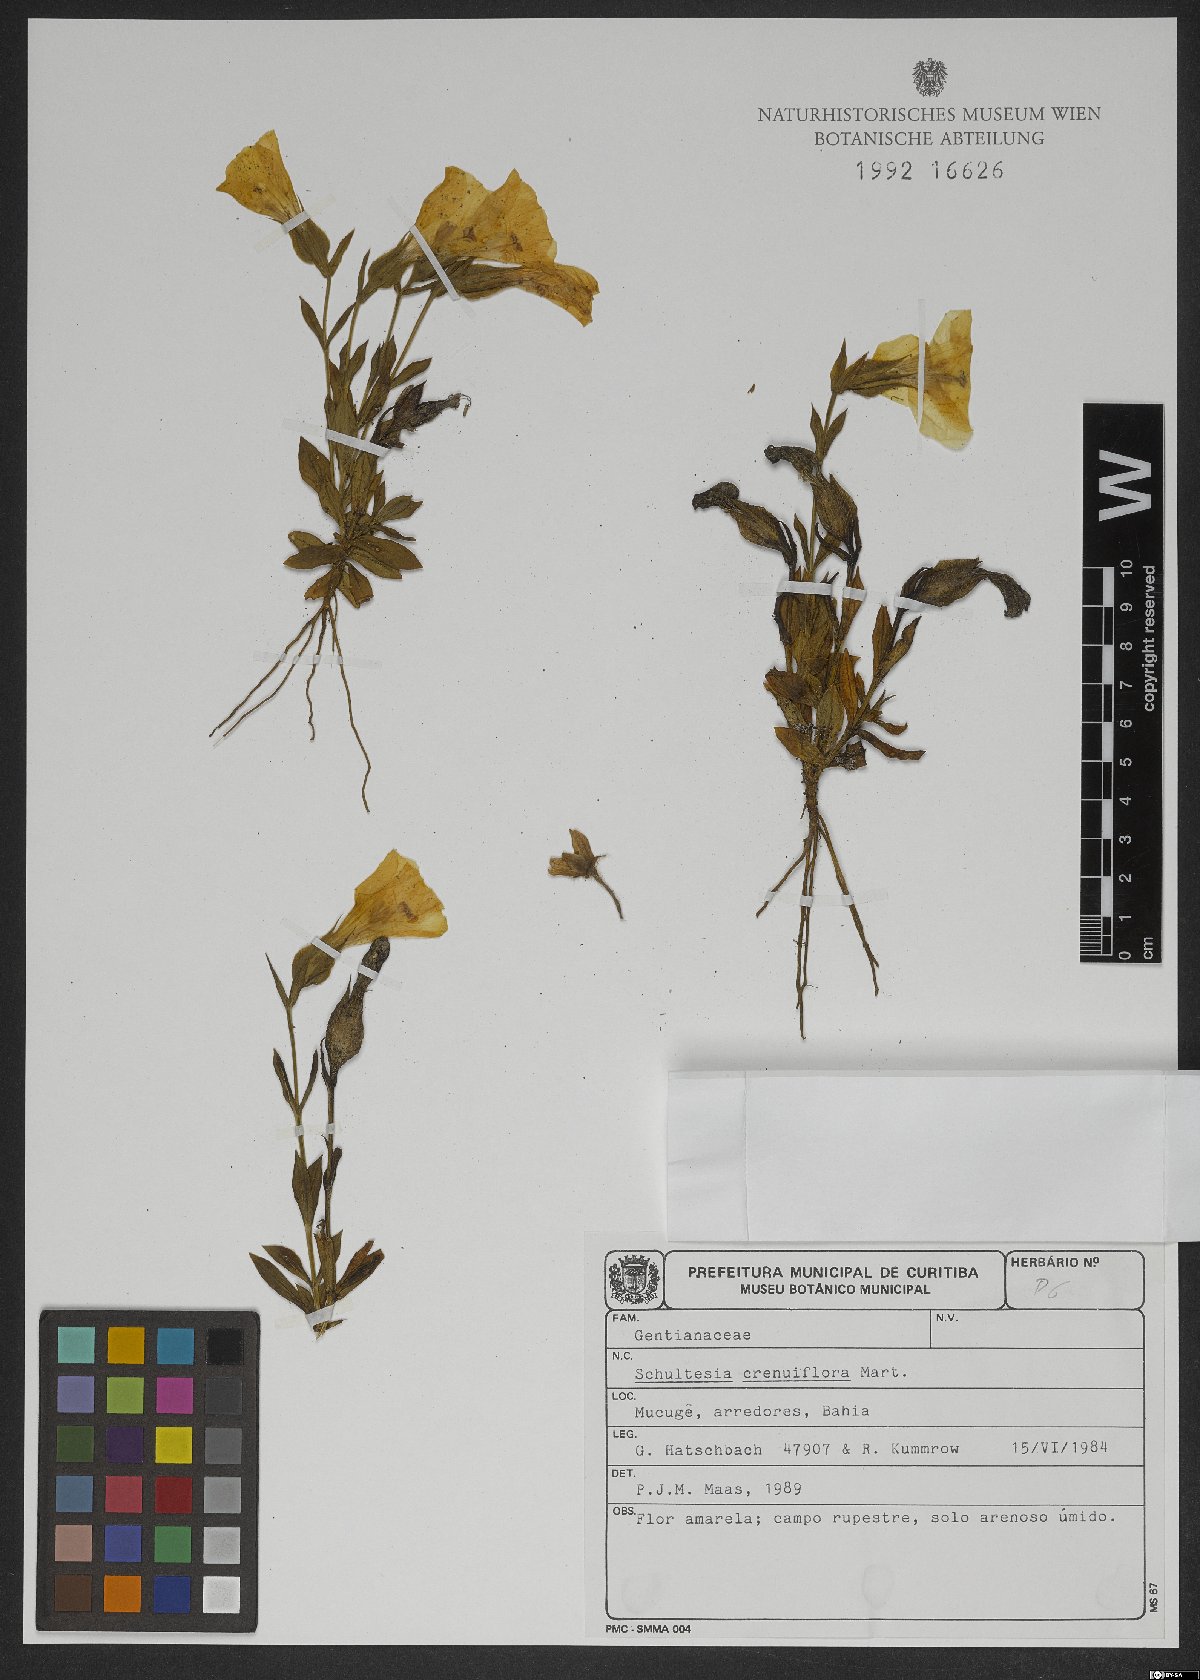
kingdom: Plantae
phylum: Tracheophyta
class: Magnoliopsida
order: Gentianales
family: Gentianaceae
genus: Schultesia
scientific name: Schultesia crenuliflora
